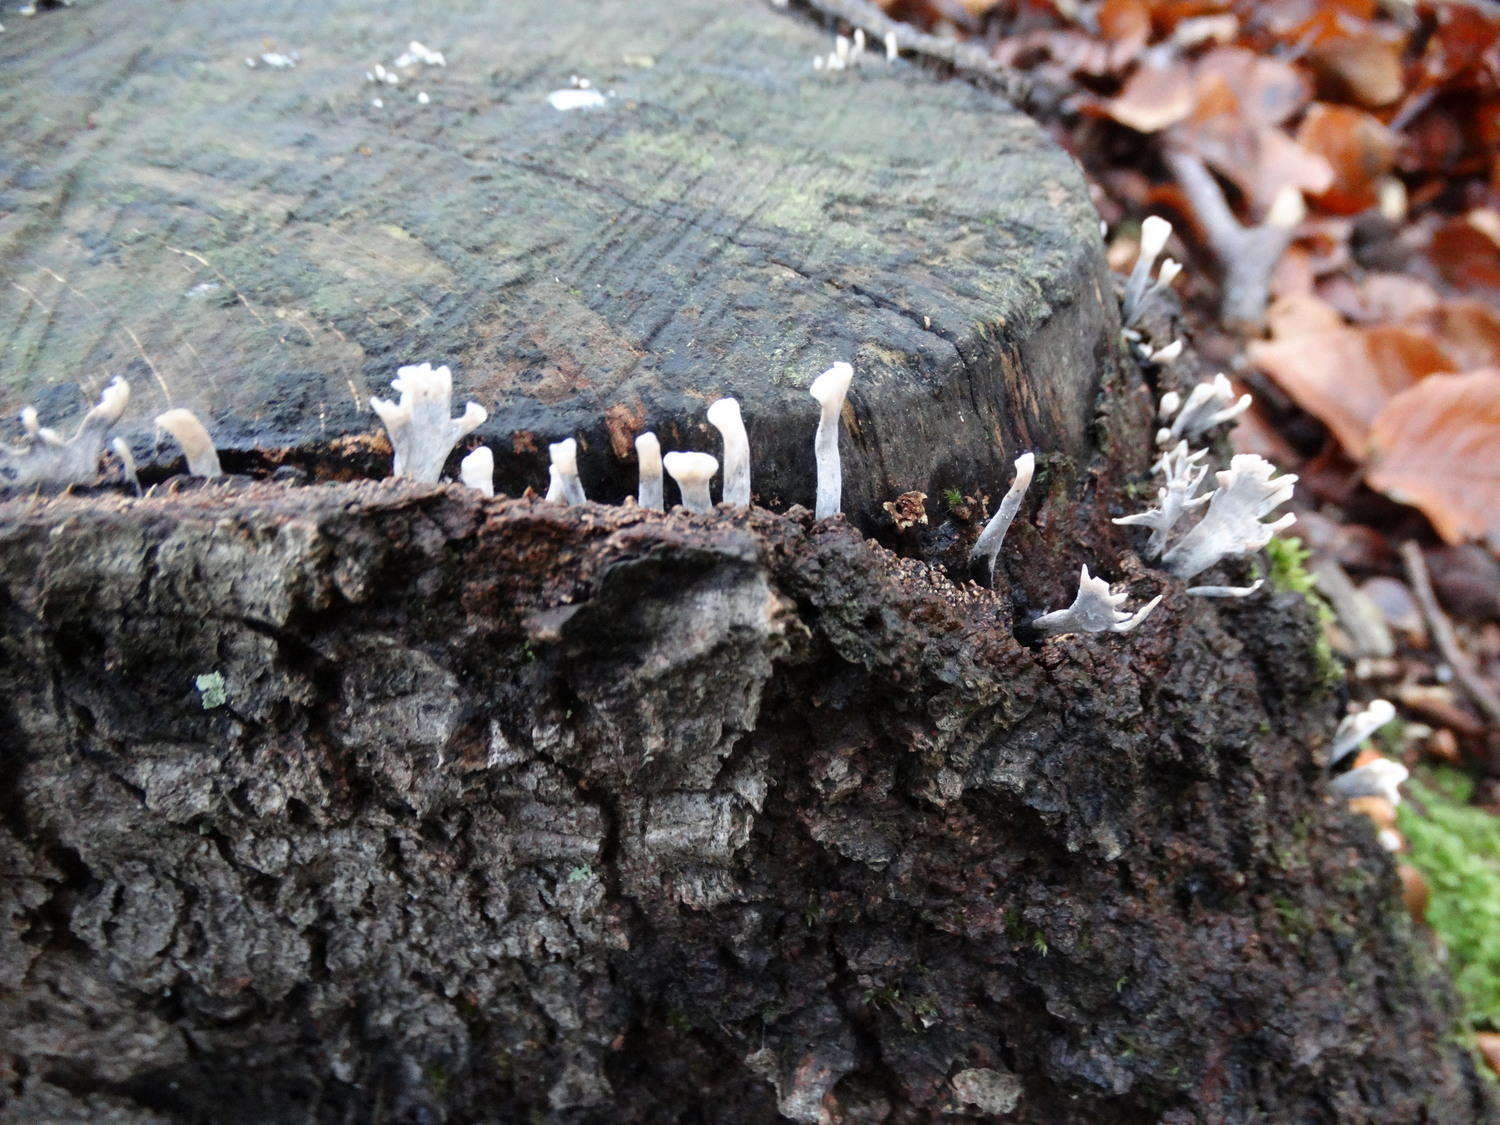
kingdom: Fungi
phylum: Ascomycota
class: Sordariomycetes
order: Xylariales
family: Xylariaceae
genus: Xylaria
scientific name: Xylaria hypoxylon
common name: grenet stødsvamp
